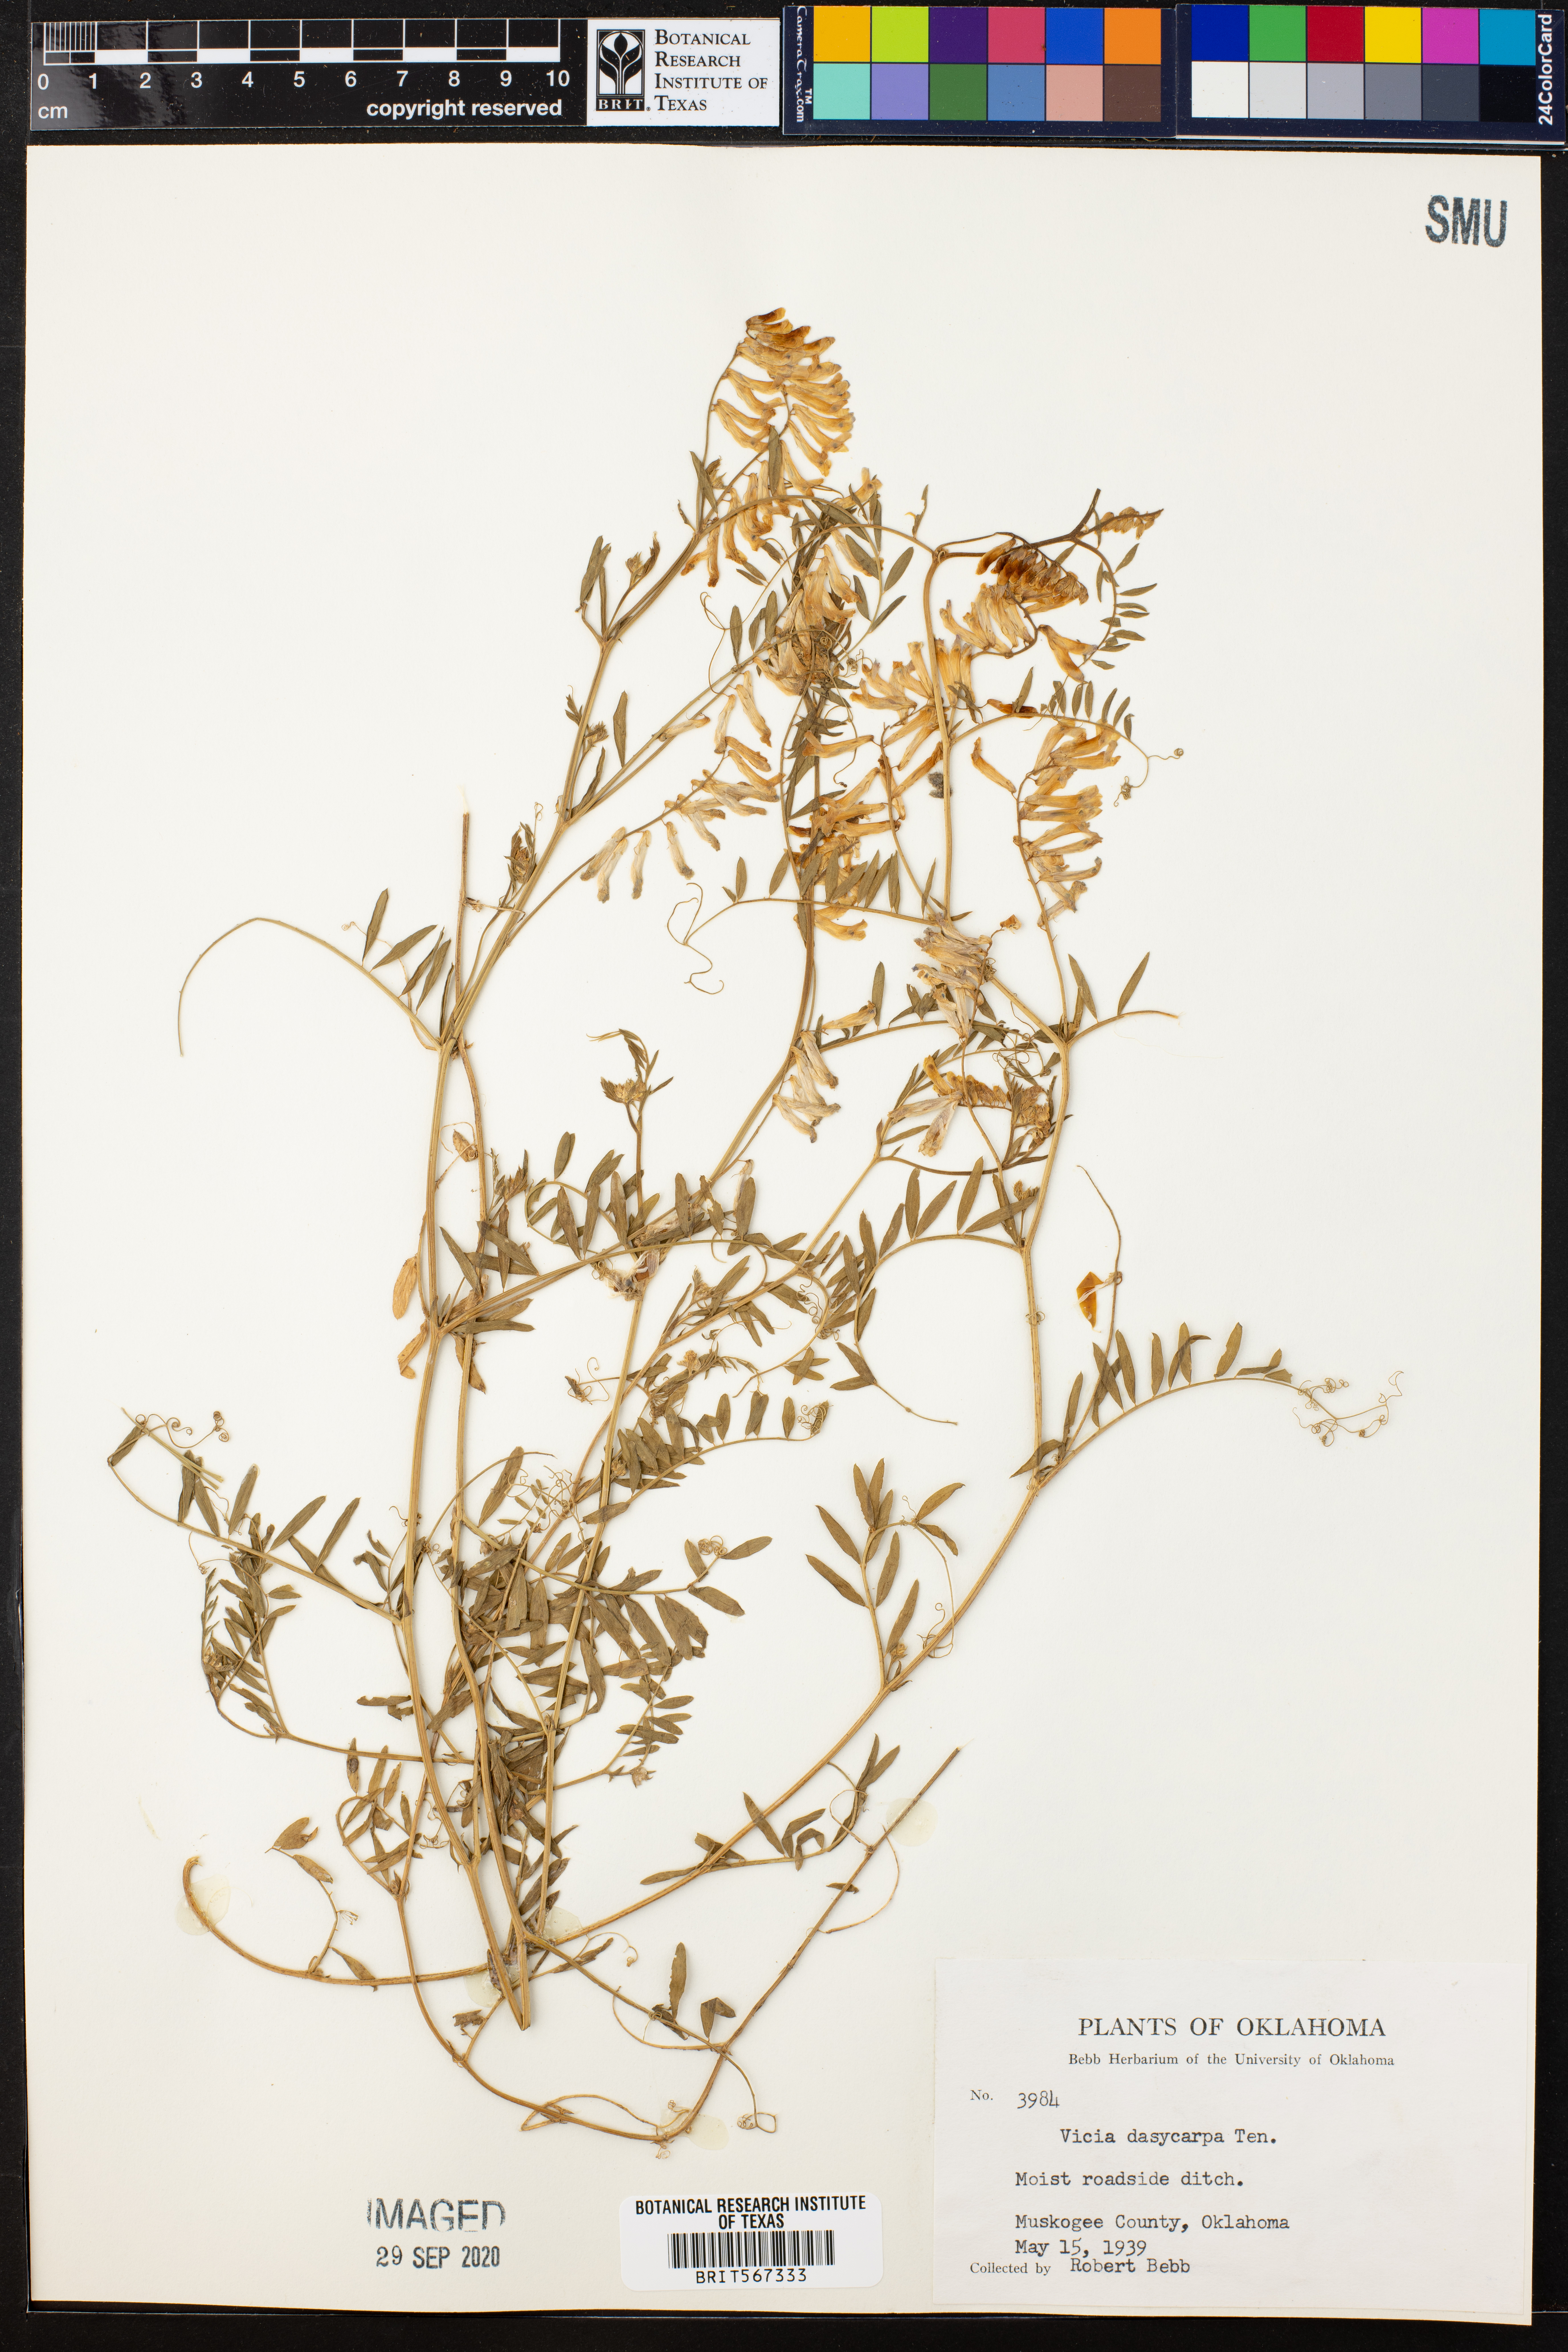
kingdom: Plantae
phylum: Tracheophyta
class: Magnoliopsida
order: Fabales
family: Fabaceae
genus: Vicia
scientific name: Vicia villosa
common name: Fodder vetch
